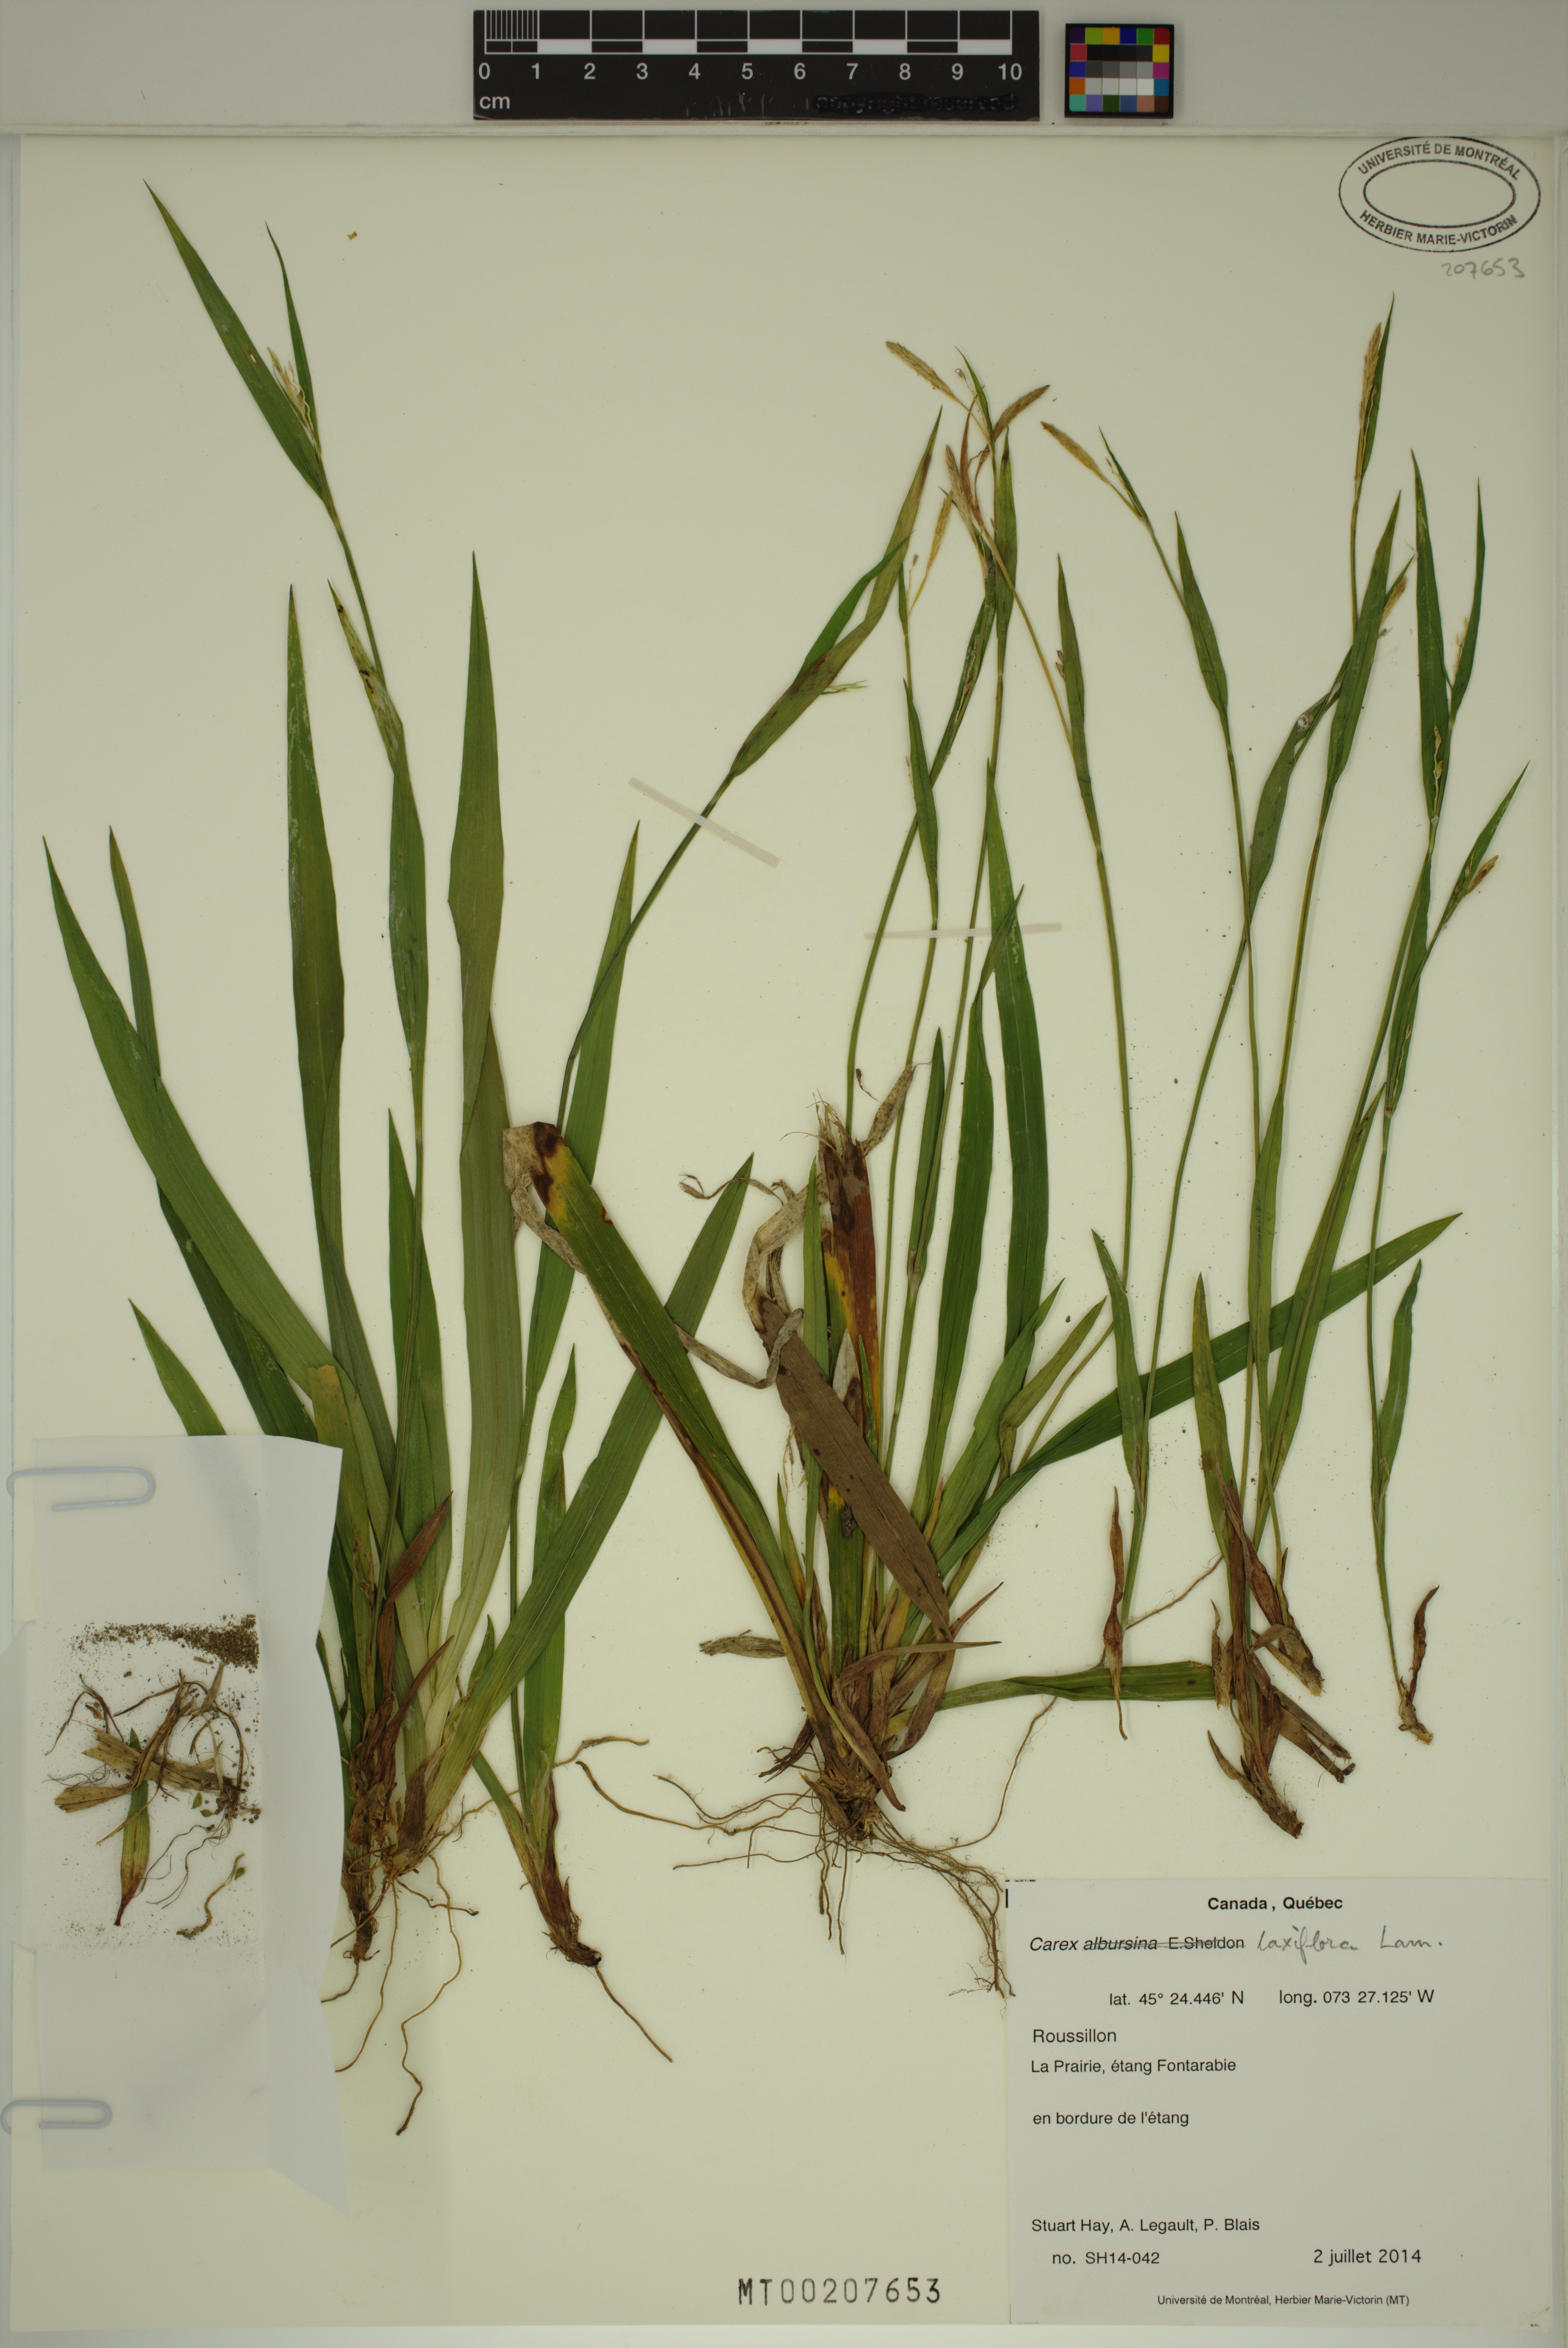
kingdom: Plantae
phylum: Tracheophyta
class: Liliopsida
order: Poales
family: Cyperaceae
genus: Carex
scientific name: Carex laxiflora
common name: Beech wood sedge
